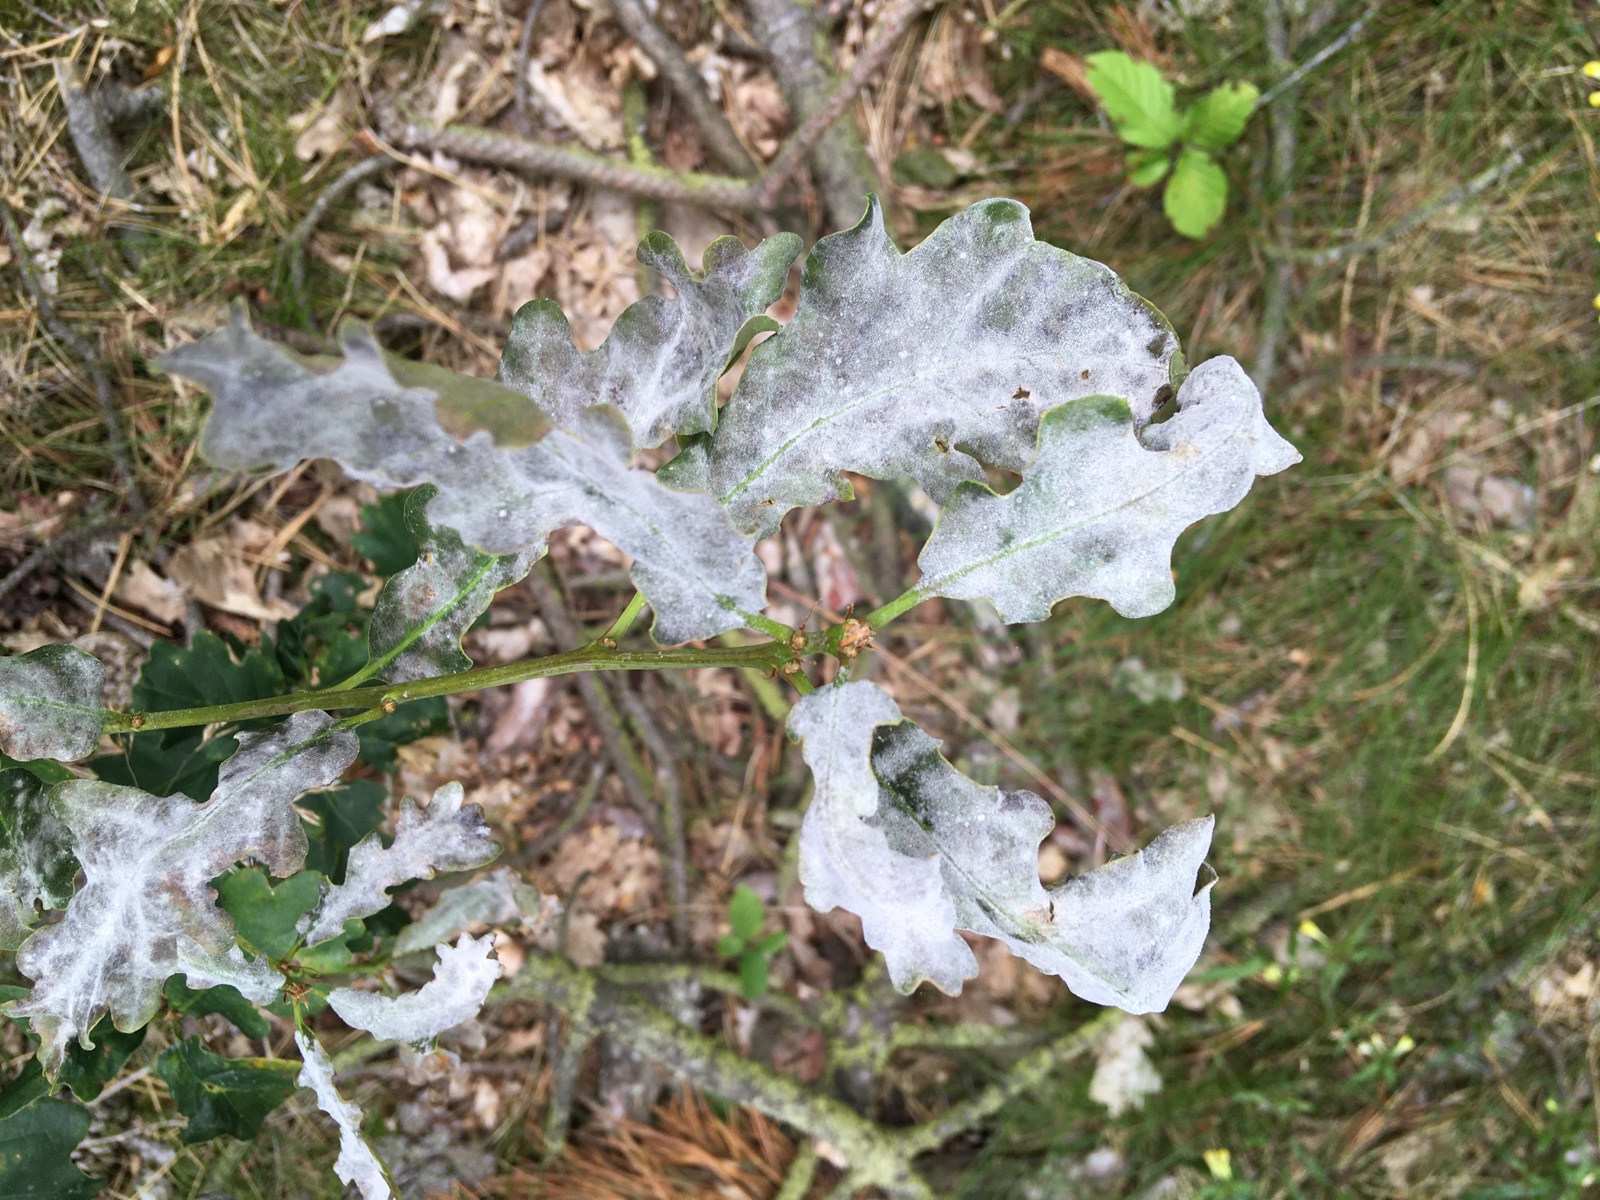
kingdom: Fungi
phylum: Ascomycota
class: Leotiomycetes
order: Helotiales
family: Erysiphaceae
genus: Erysiphe
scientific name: Erysiphe alphitoides
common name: ege-meldug
